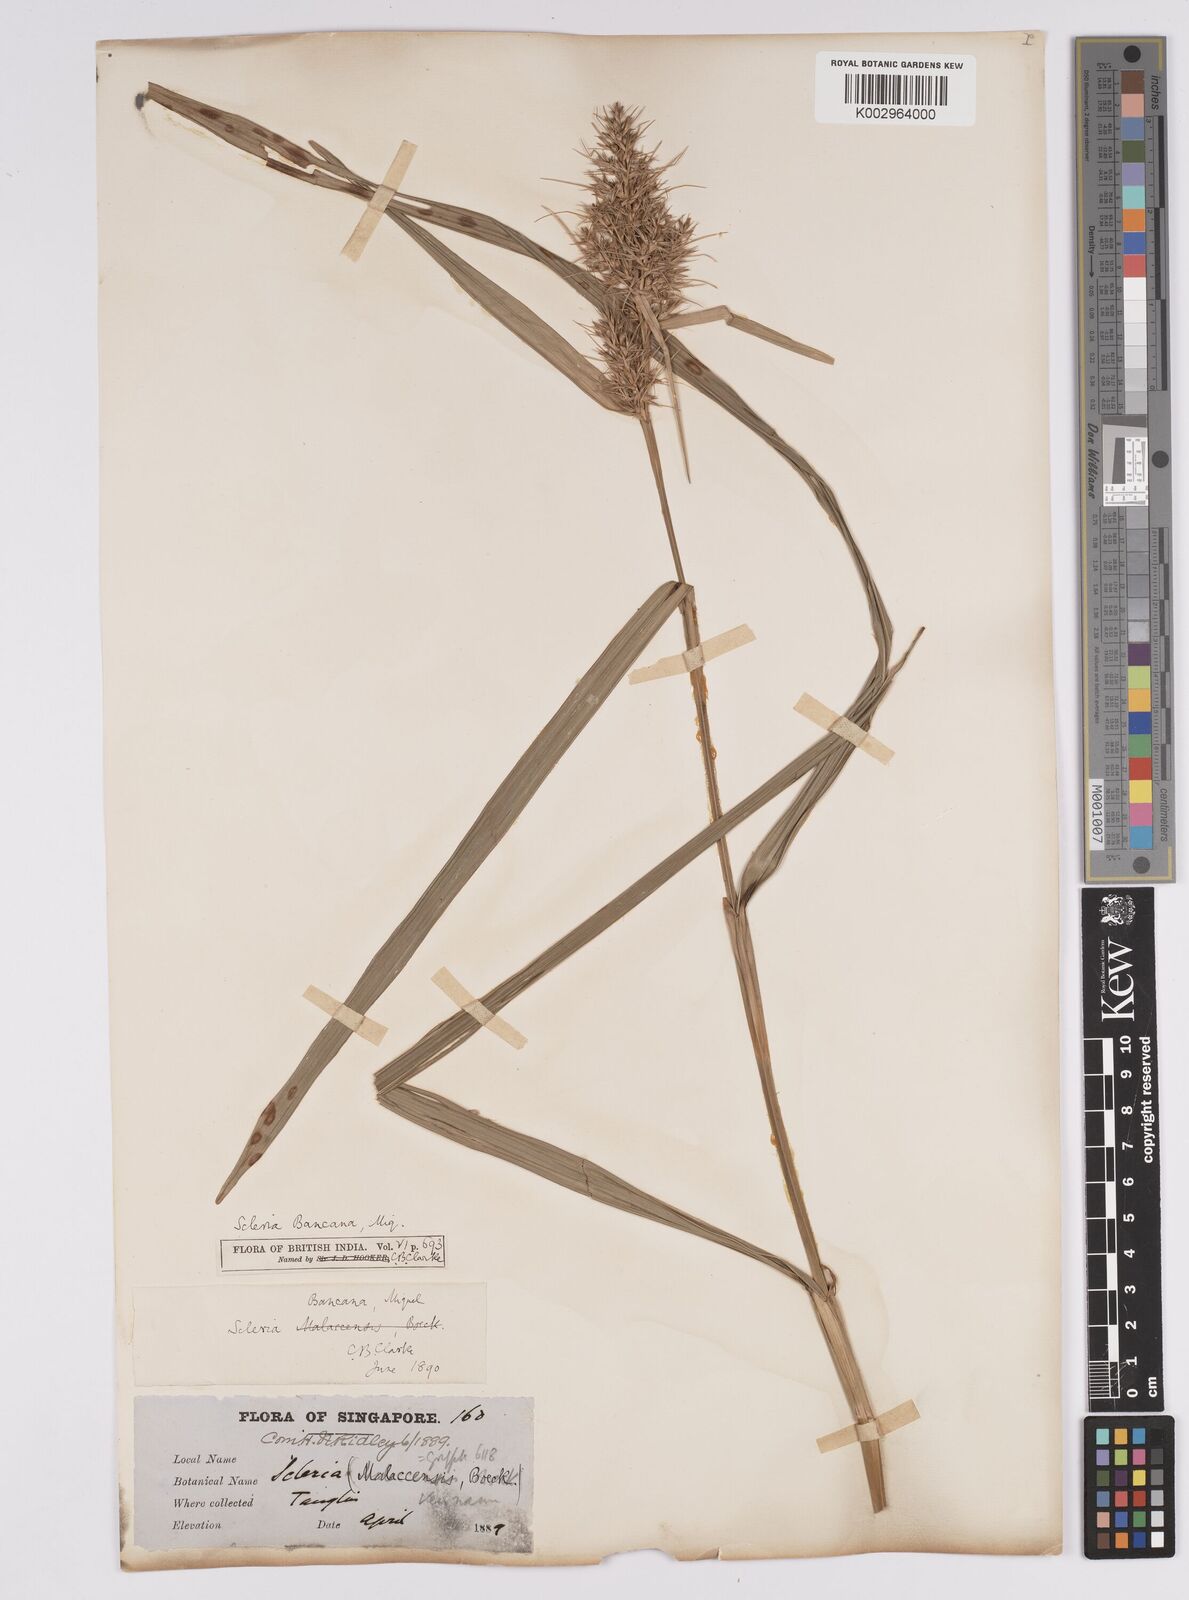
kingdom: Plantae
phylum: Tracheophyta
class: Liliopsida
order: Poales
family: Cyperaceae
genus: Scleria
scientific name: Scleria ciliaris
